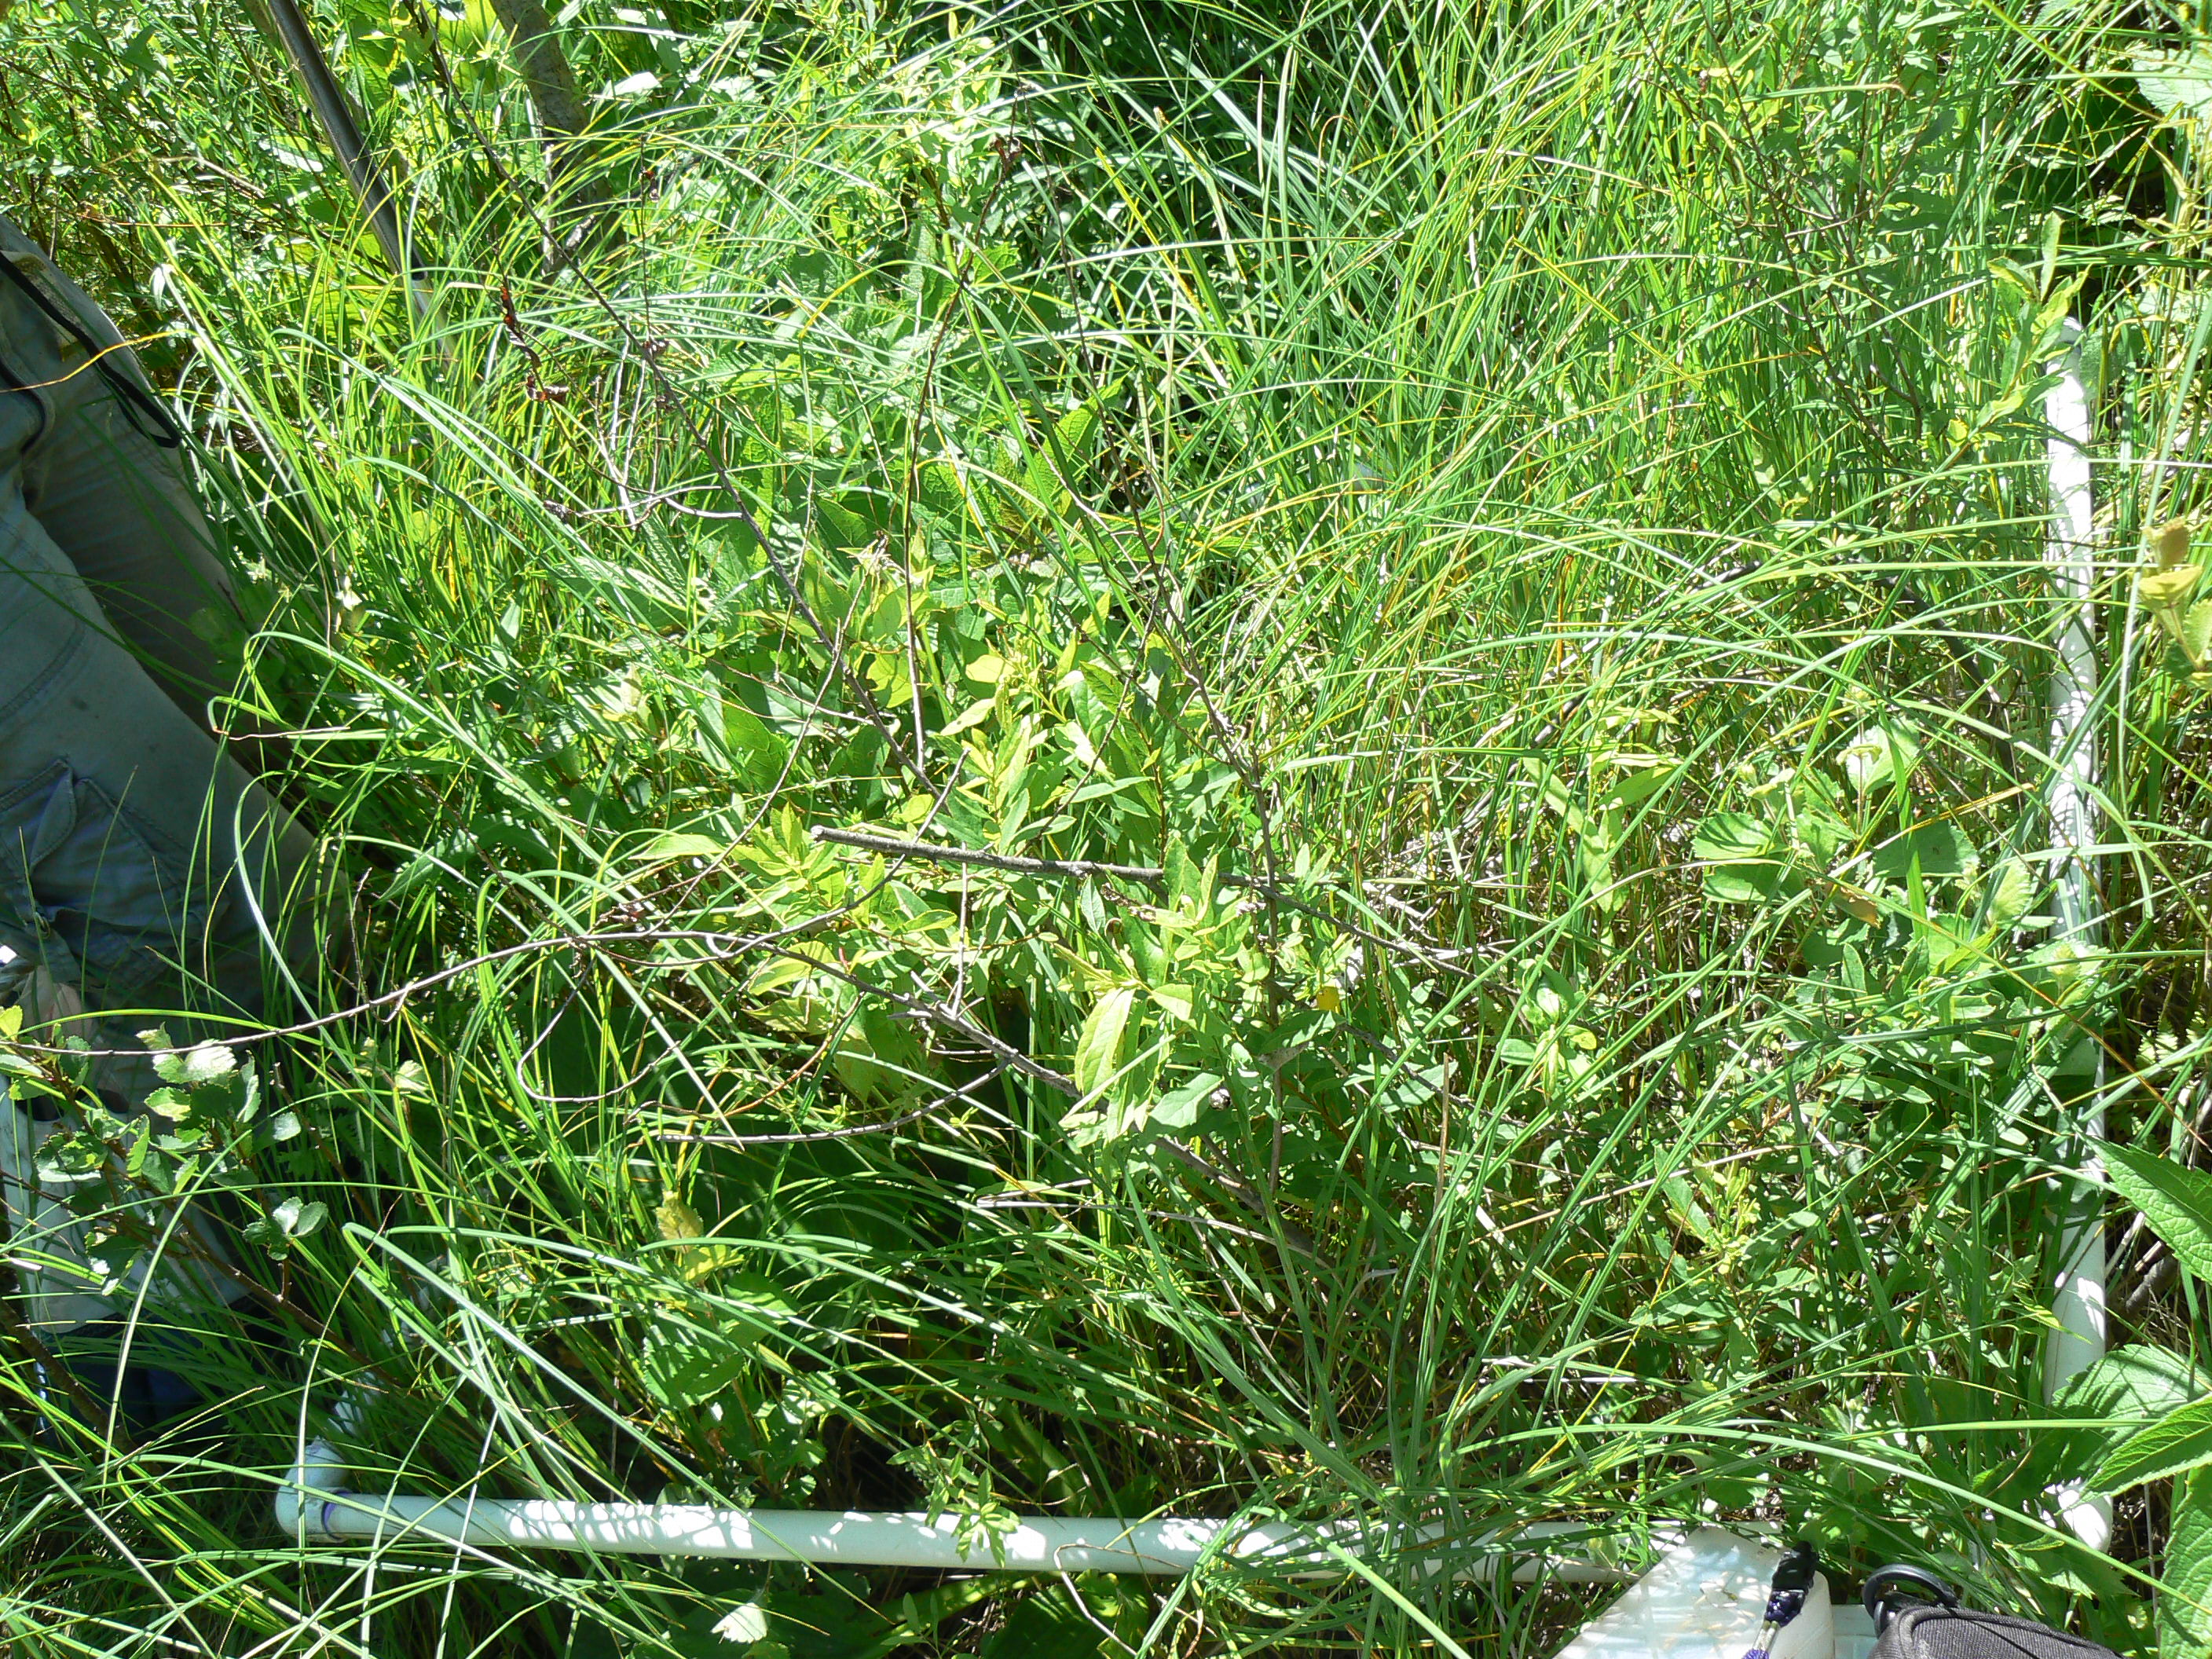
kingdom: Plantae
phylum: Tracheophyta
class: Magnoliopsida
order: Gentianales
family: Rubiaceae
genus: Galium
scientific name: Galium asprellum
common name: Rough bedstraw
